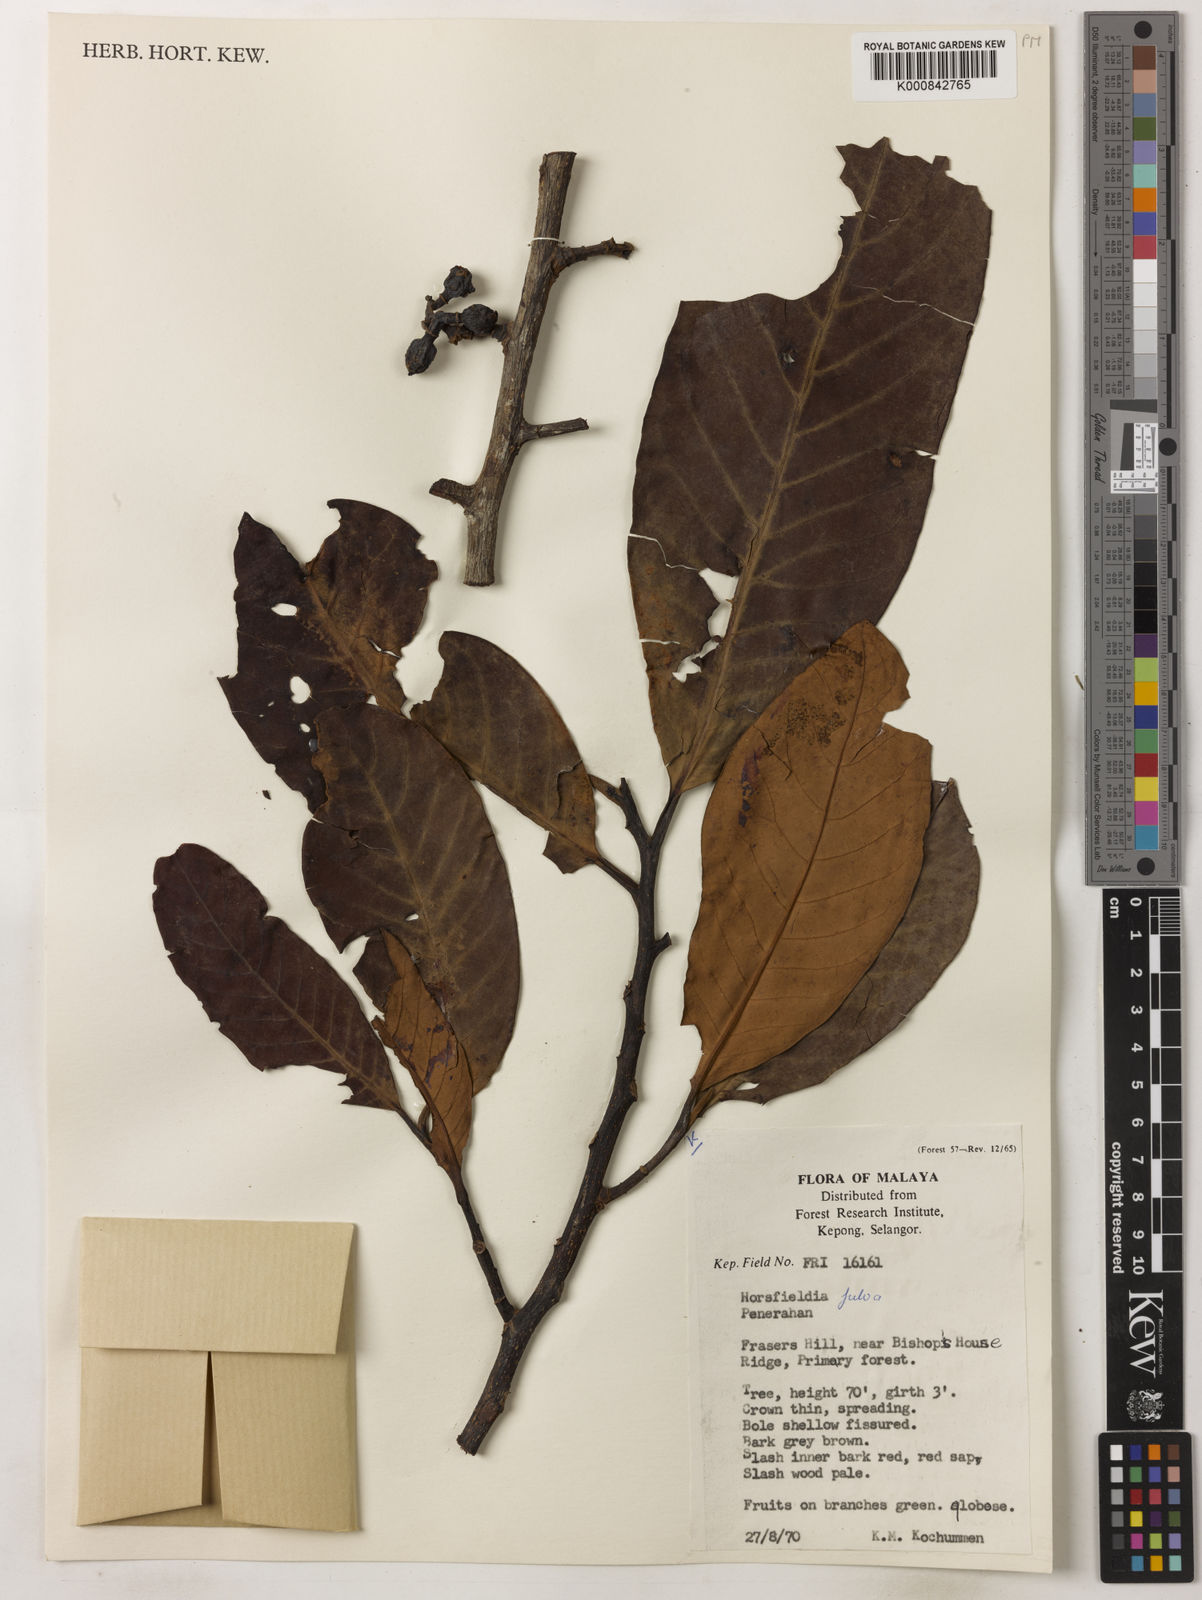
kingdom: Plantae
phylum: Tracheophyta
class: Magnoliopsida
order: Magnoliales
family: Myristicaceae
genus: Horsfieldia
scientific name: Horsfieldia fulva
